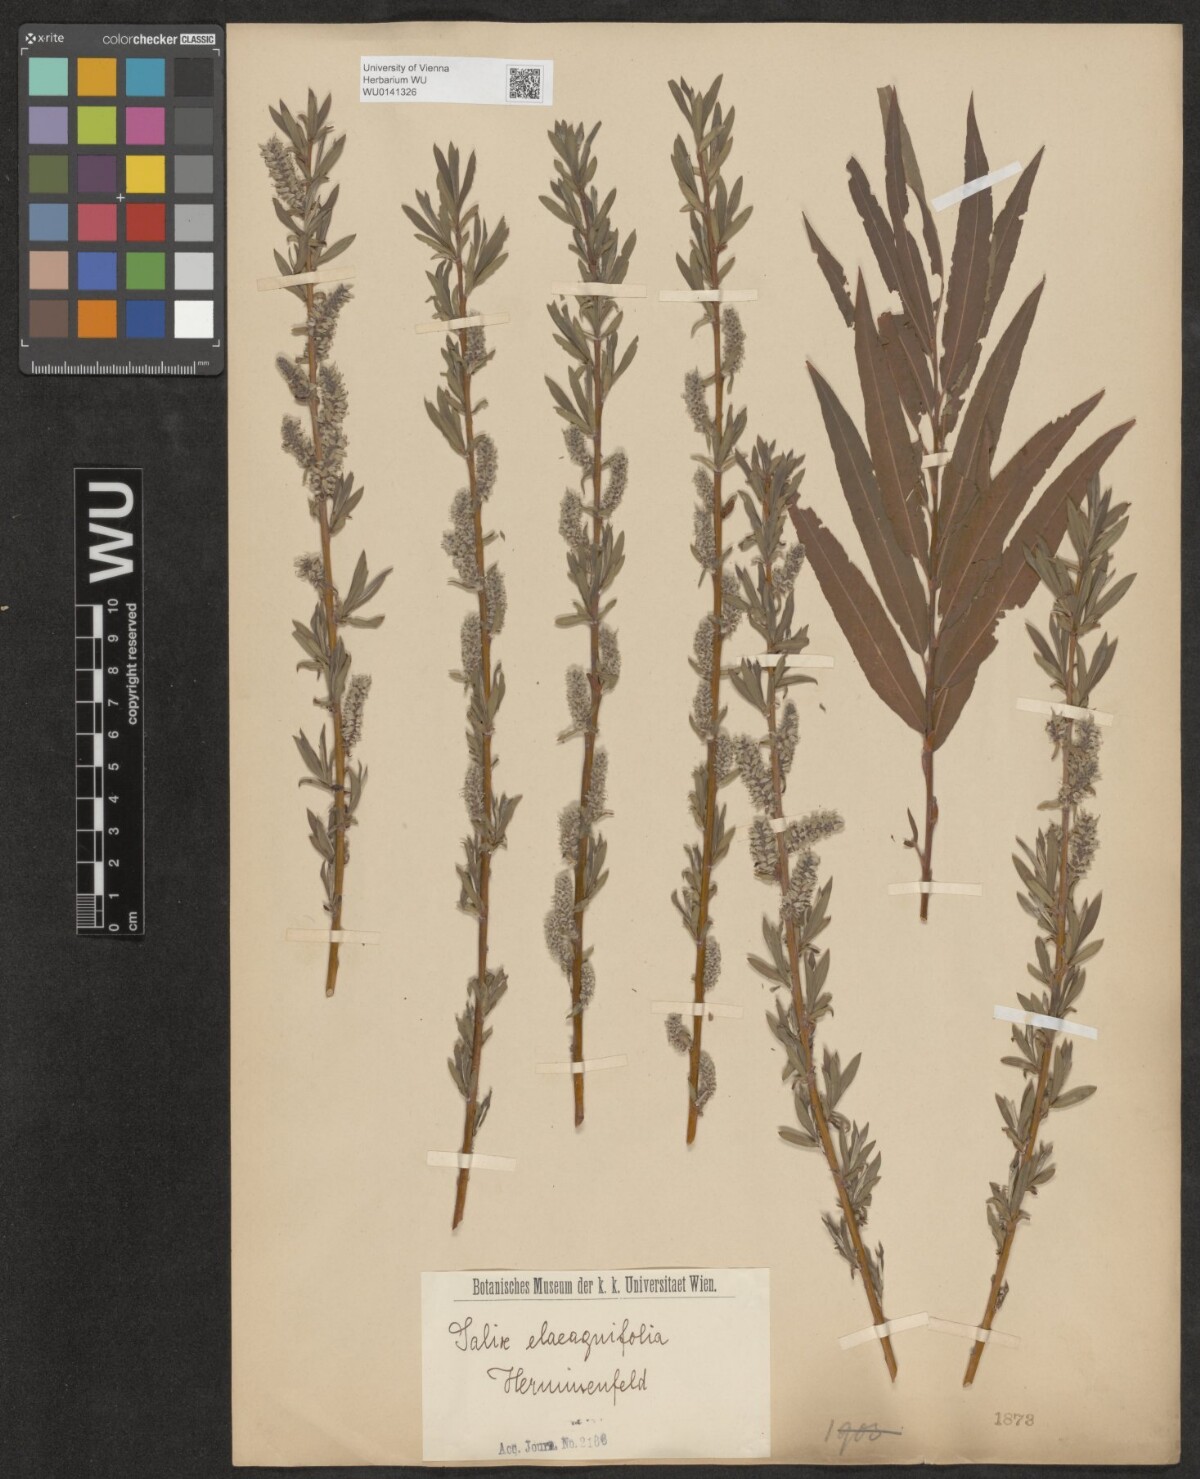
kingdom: Plantae
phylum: Tracheophyta
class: Magnoliopsida
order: Malpighiales
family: Salicaceae
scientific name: Salicaceae
